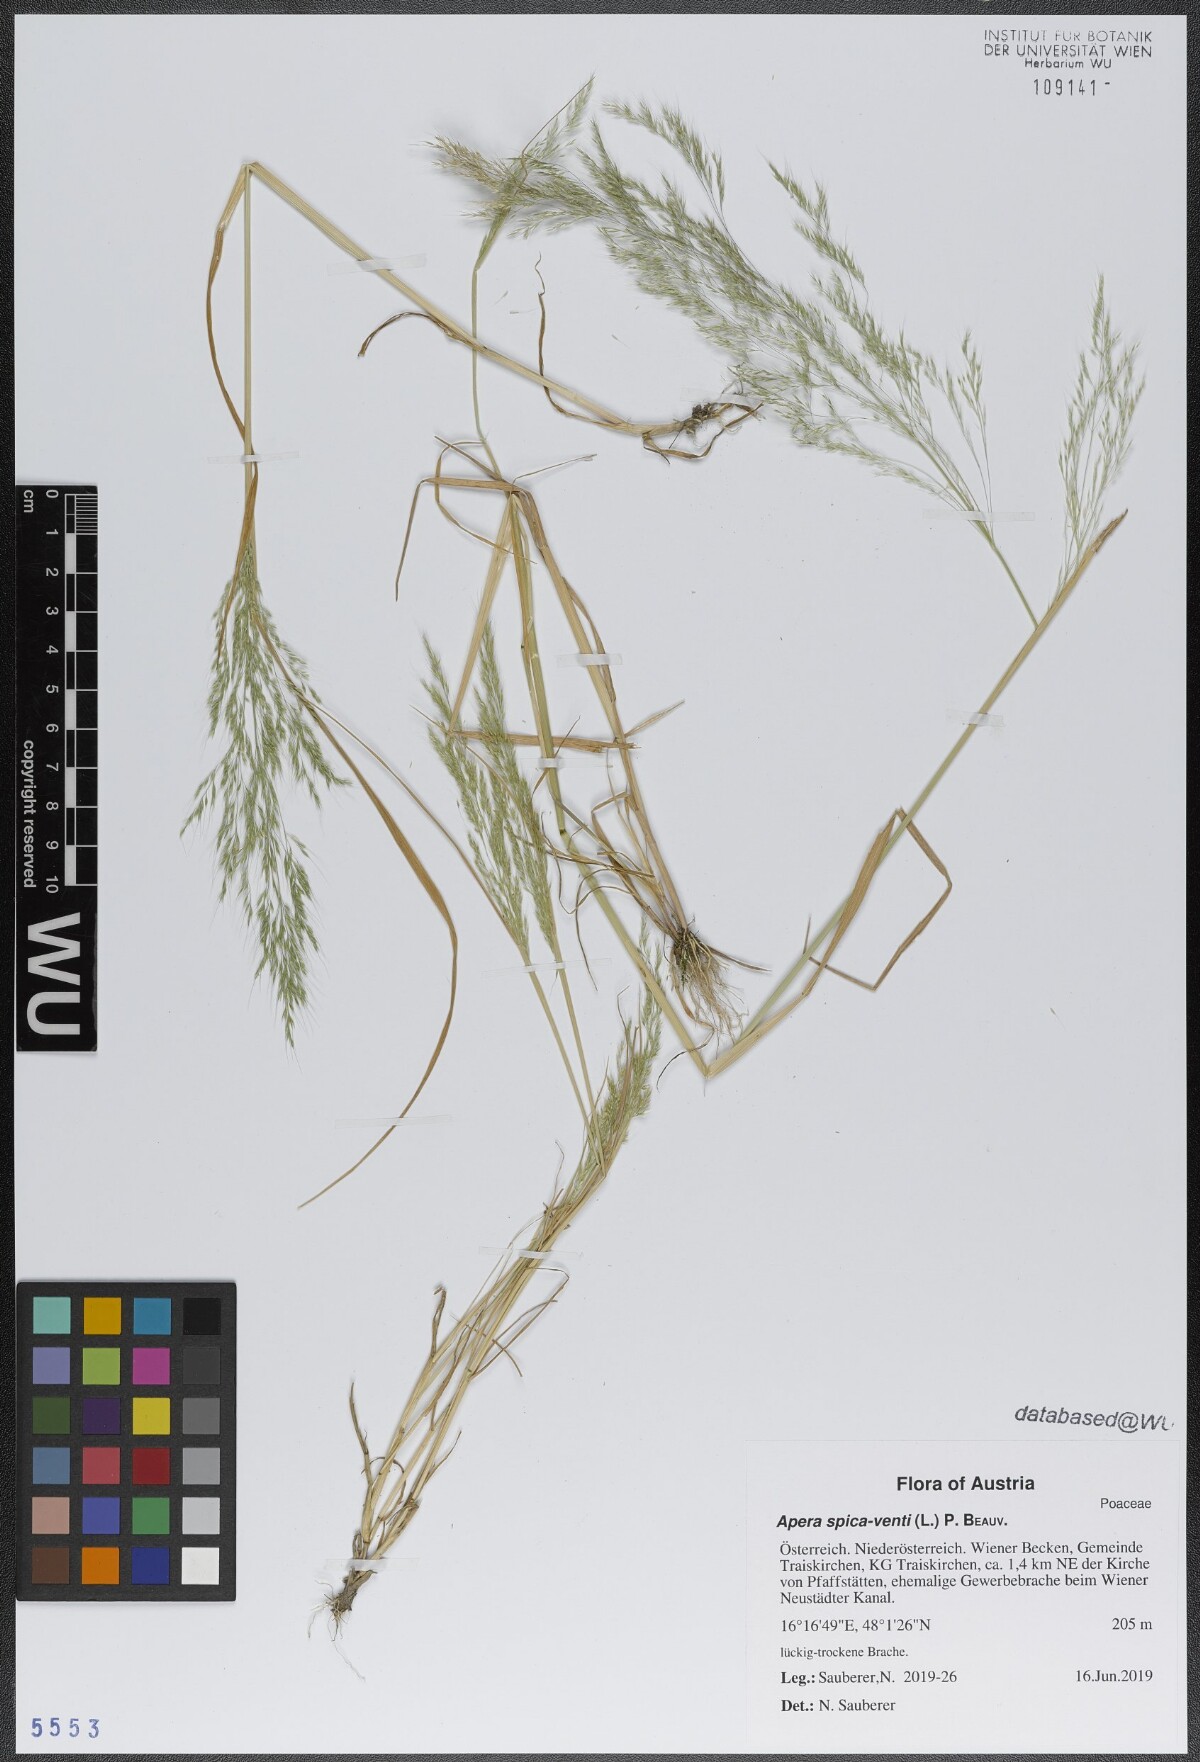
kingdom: Plantae
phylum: Tracheophyta
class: Liliopsida
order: Poales
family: Poaceae
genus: Apera
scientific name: Apera spica-venti
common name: Loose silky-bent
